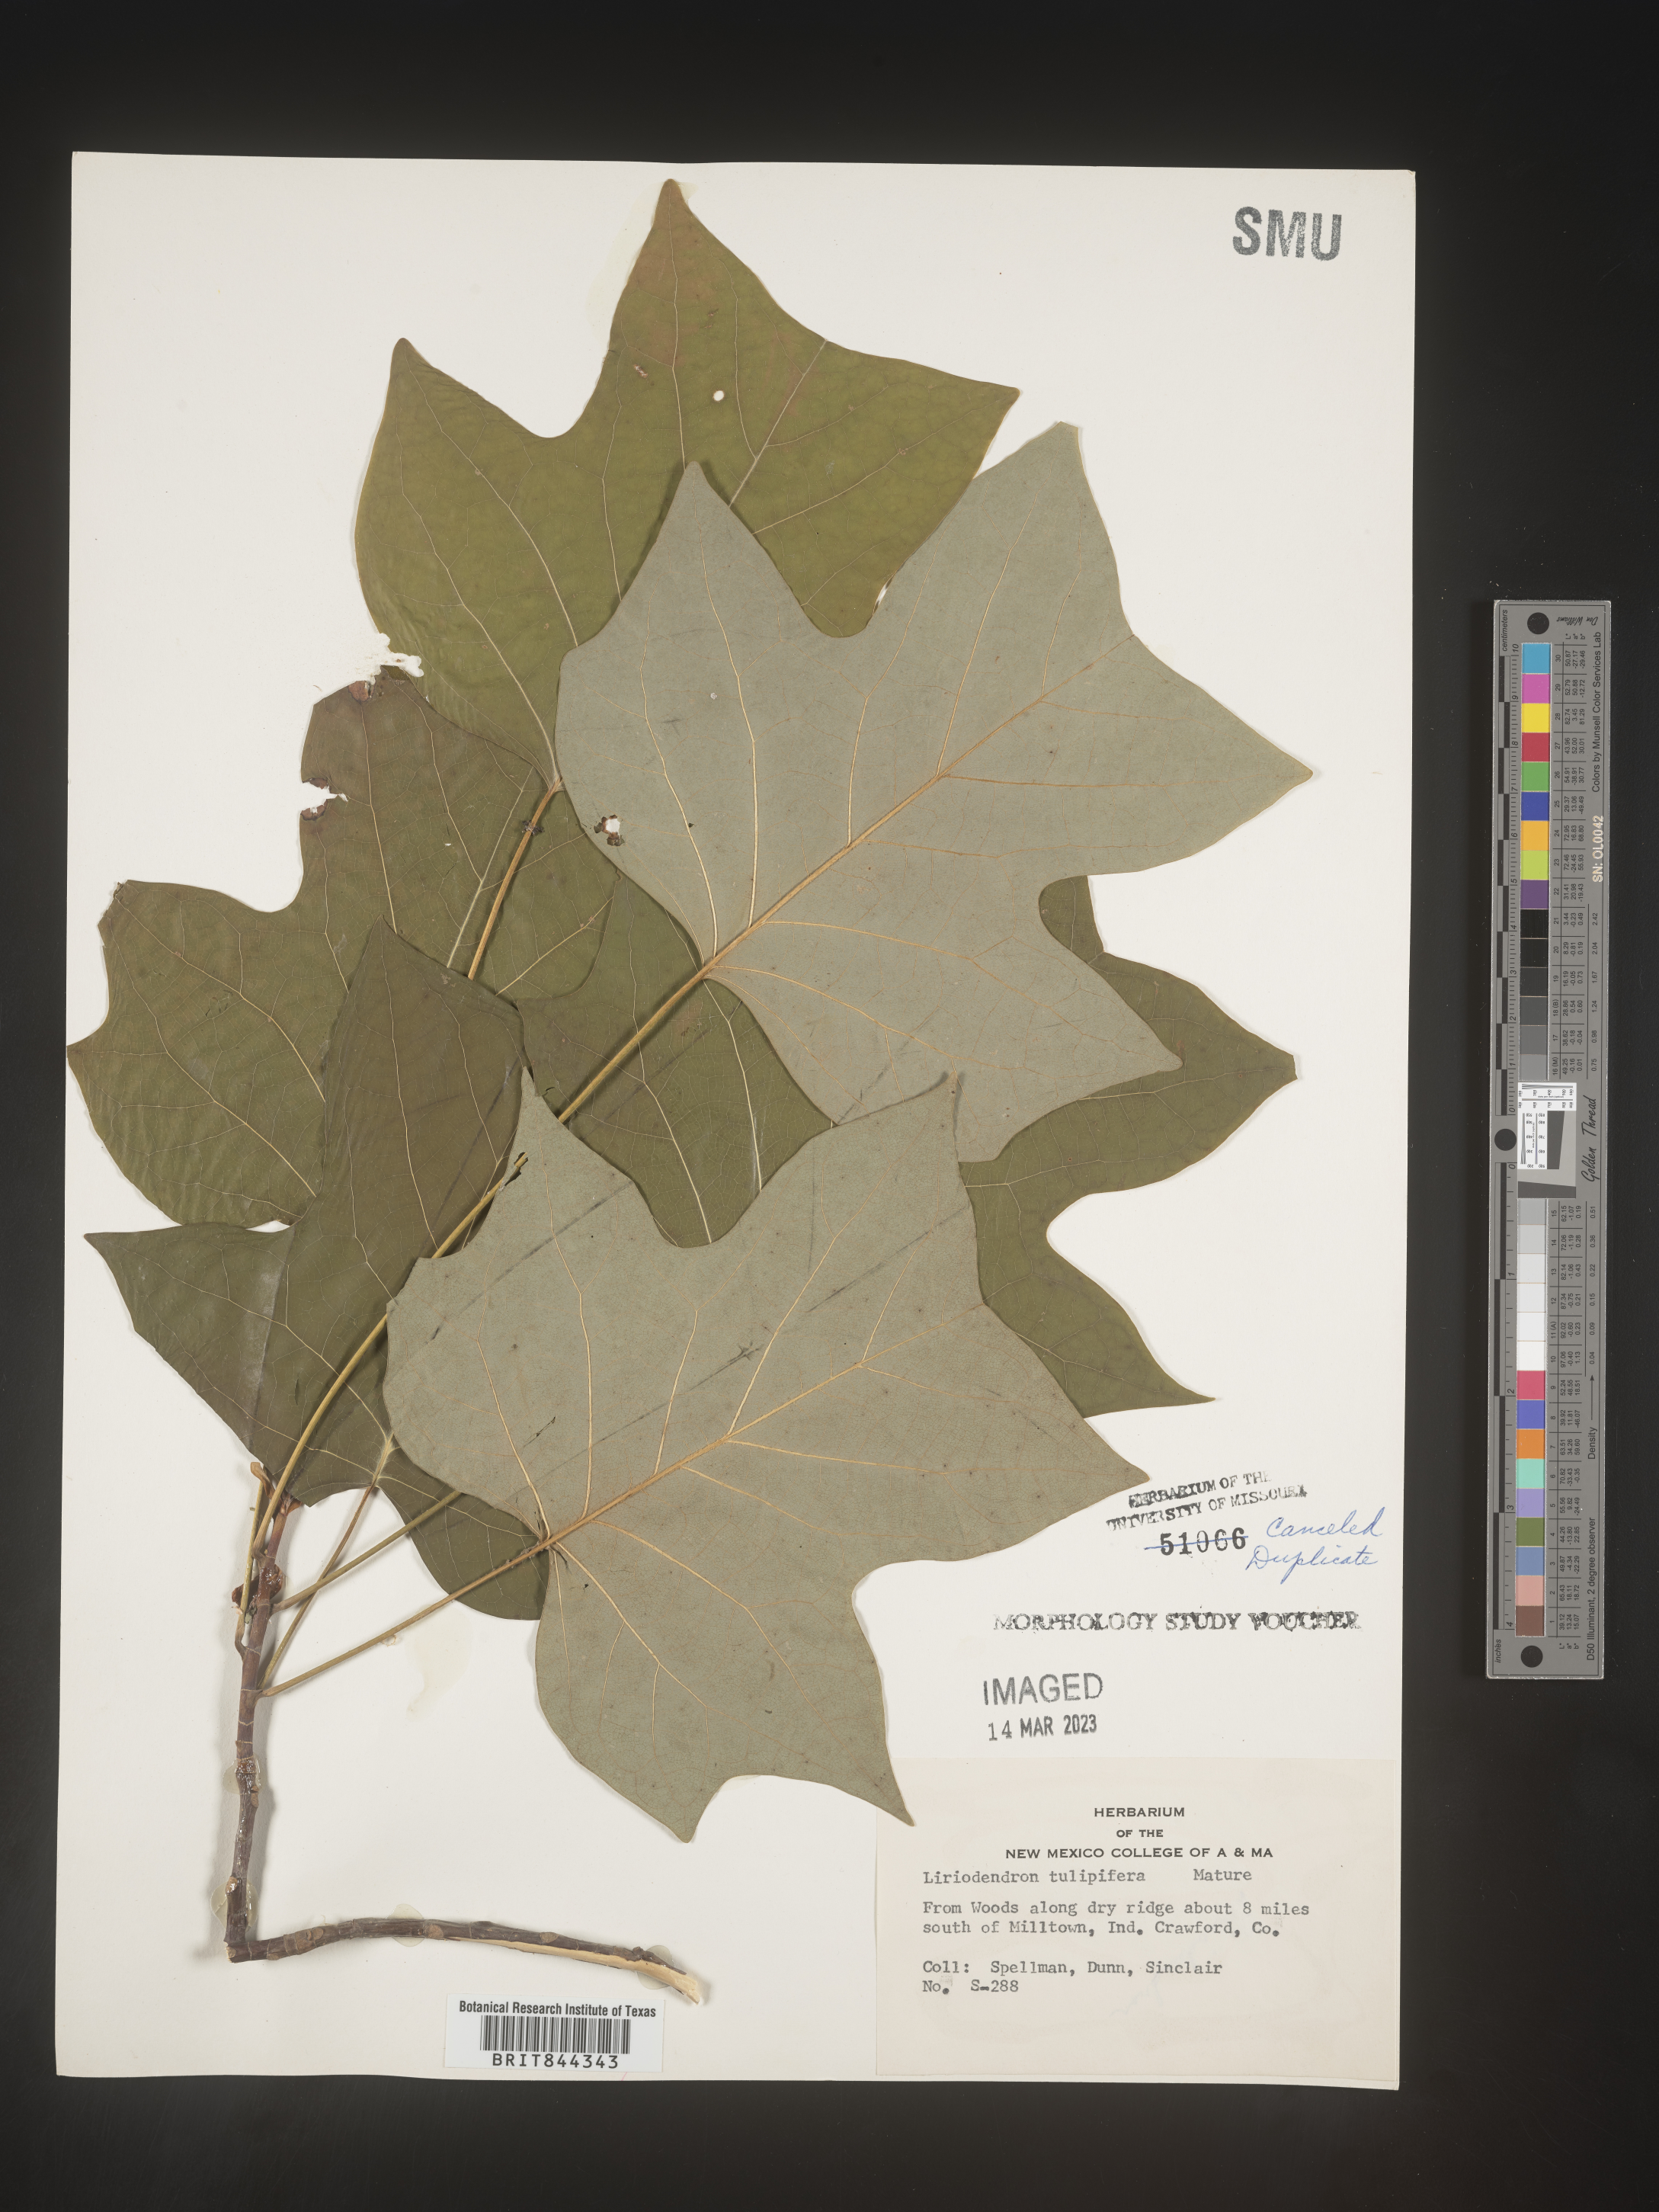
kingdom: Plantae
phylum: Tracheophyta
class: Magnoliopsida
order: Magnoliales
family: Magnoliaceae
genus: Liriodendron
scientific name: Liriodendron tulipifera
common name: Tulip tree
